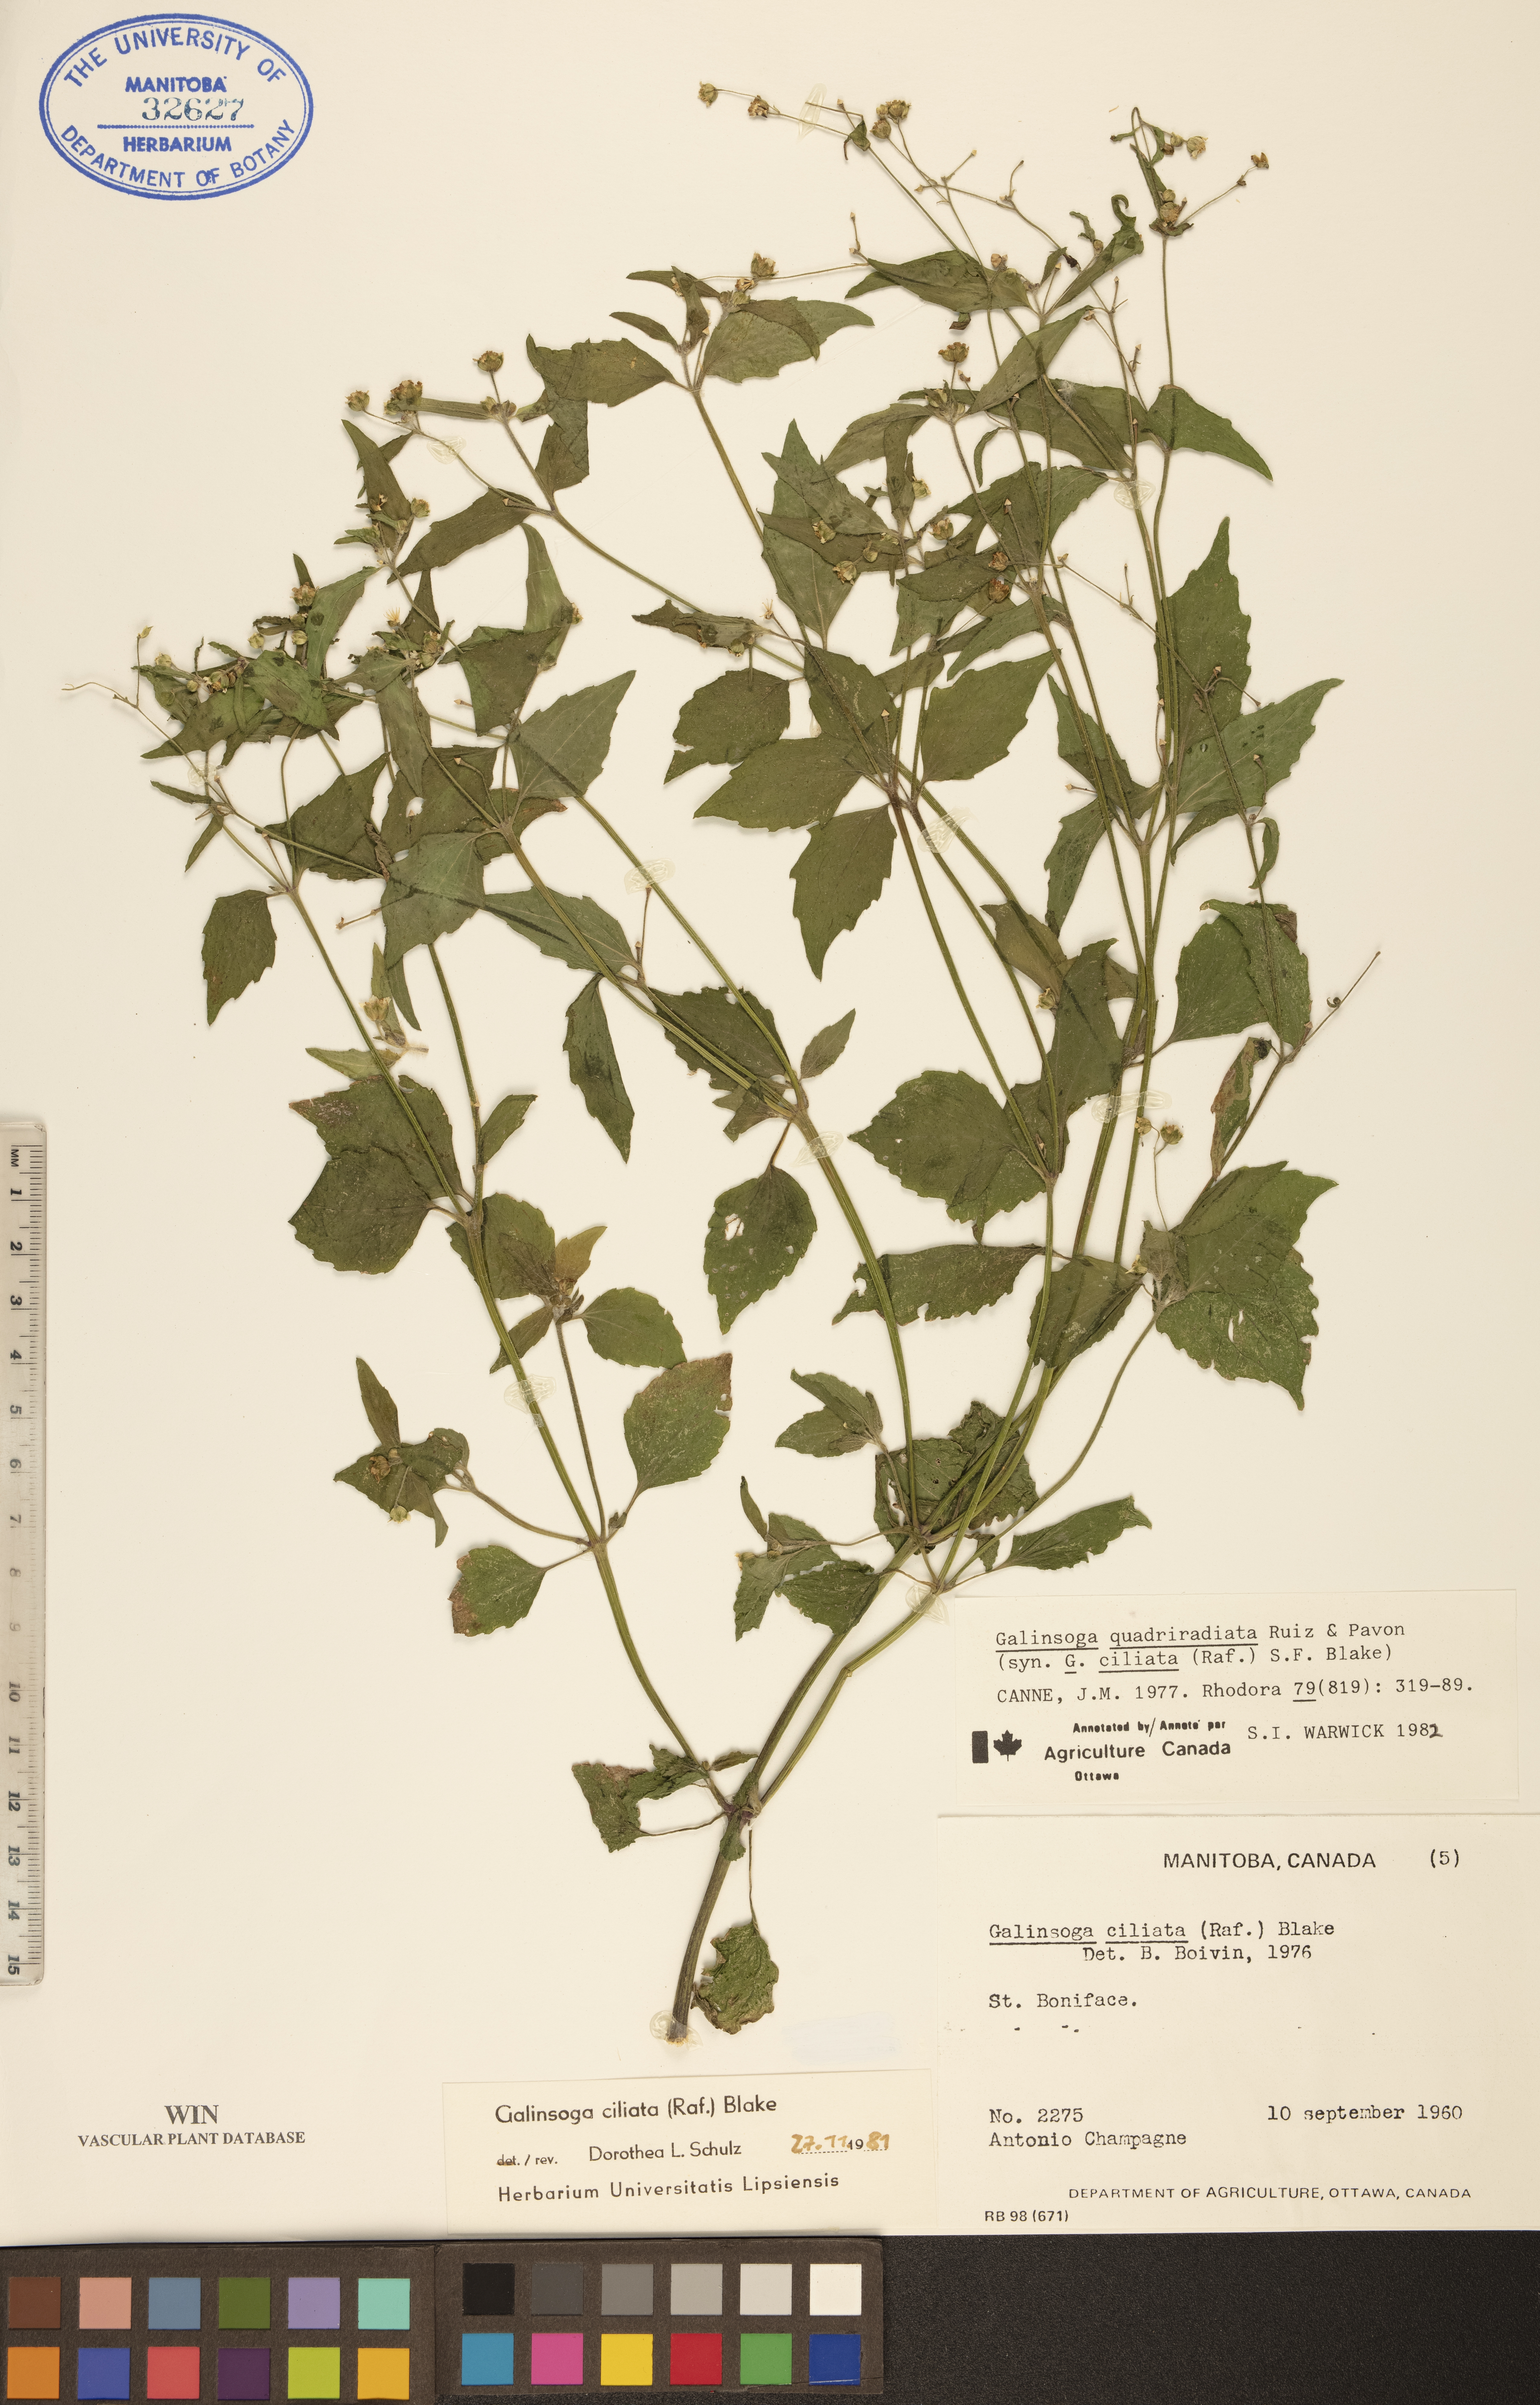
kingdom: Plantae
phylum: Tracheophyta
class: Magnoliopsida
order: Asterales
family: Asteraceae
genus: Galinsoga
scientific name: Galinsoga quadriradiata
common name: Shaggy soldier
